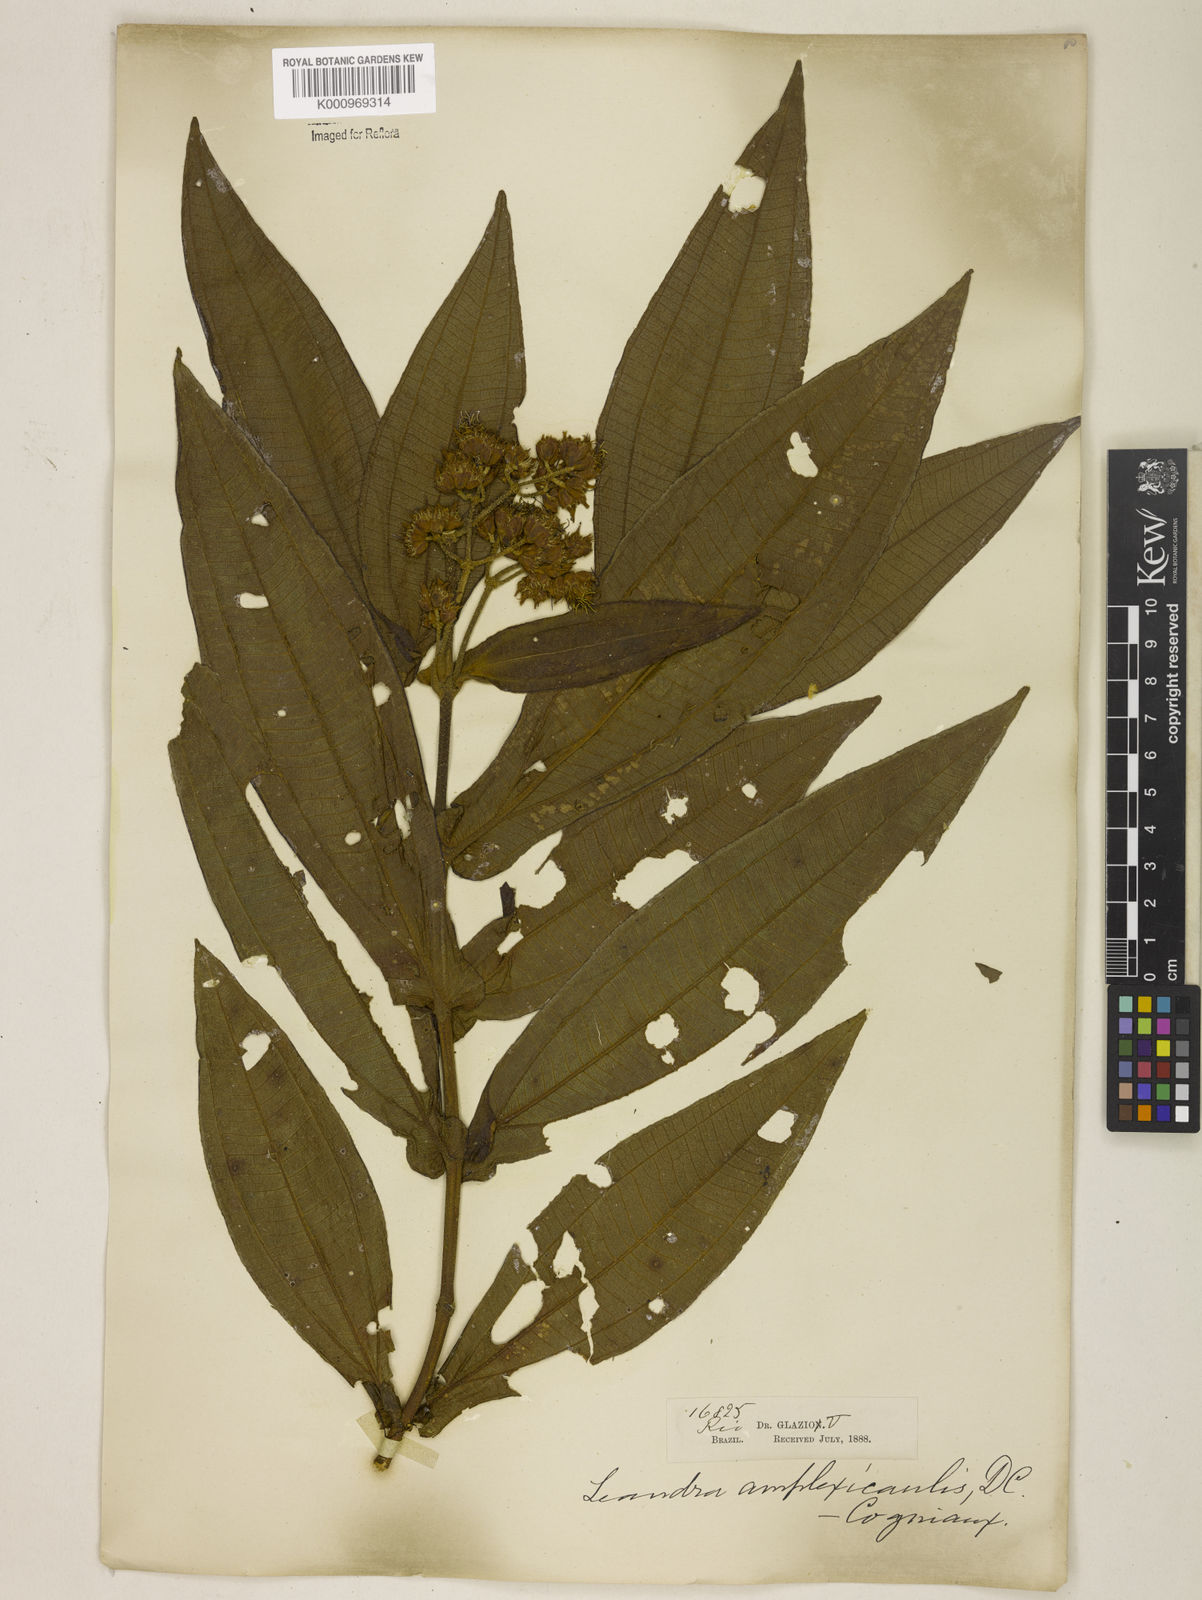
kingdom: Plantae
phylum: Tracheophyta
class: Magnoliopsida
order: Myrtales
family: Melastomataceae
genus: Miconia
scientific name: Miconia pectinata
